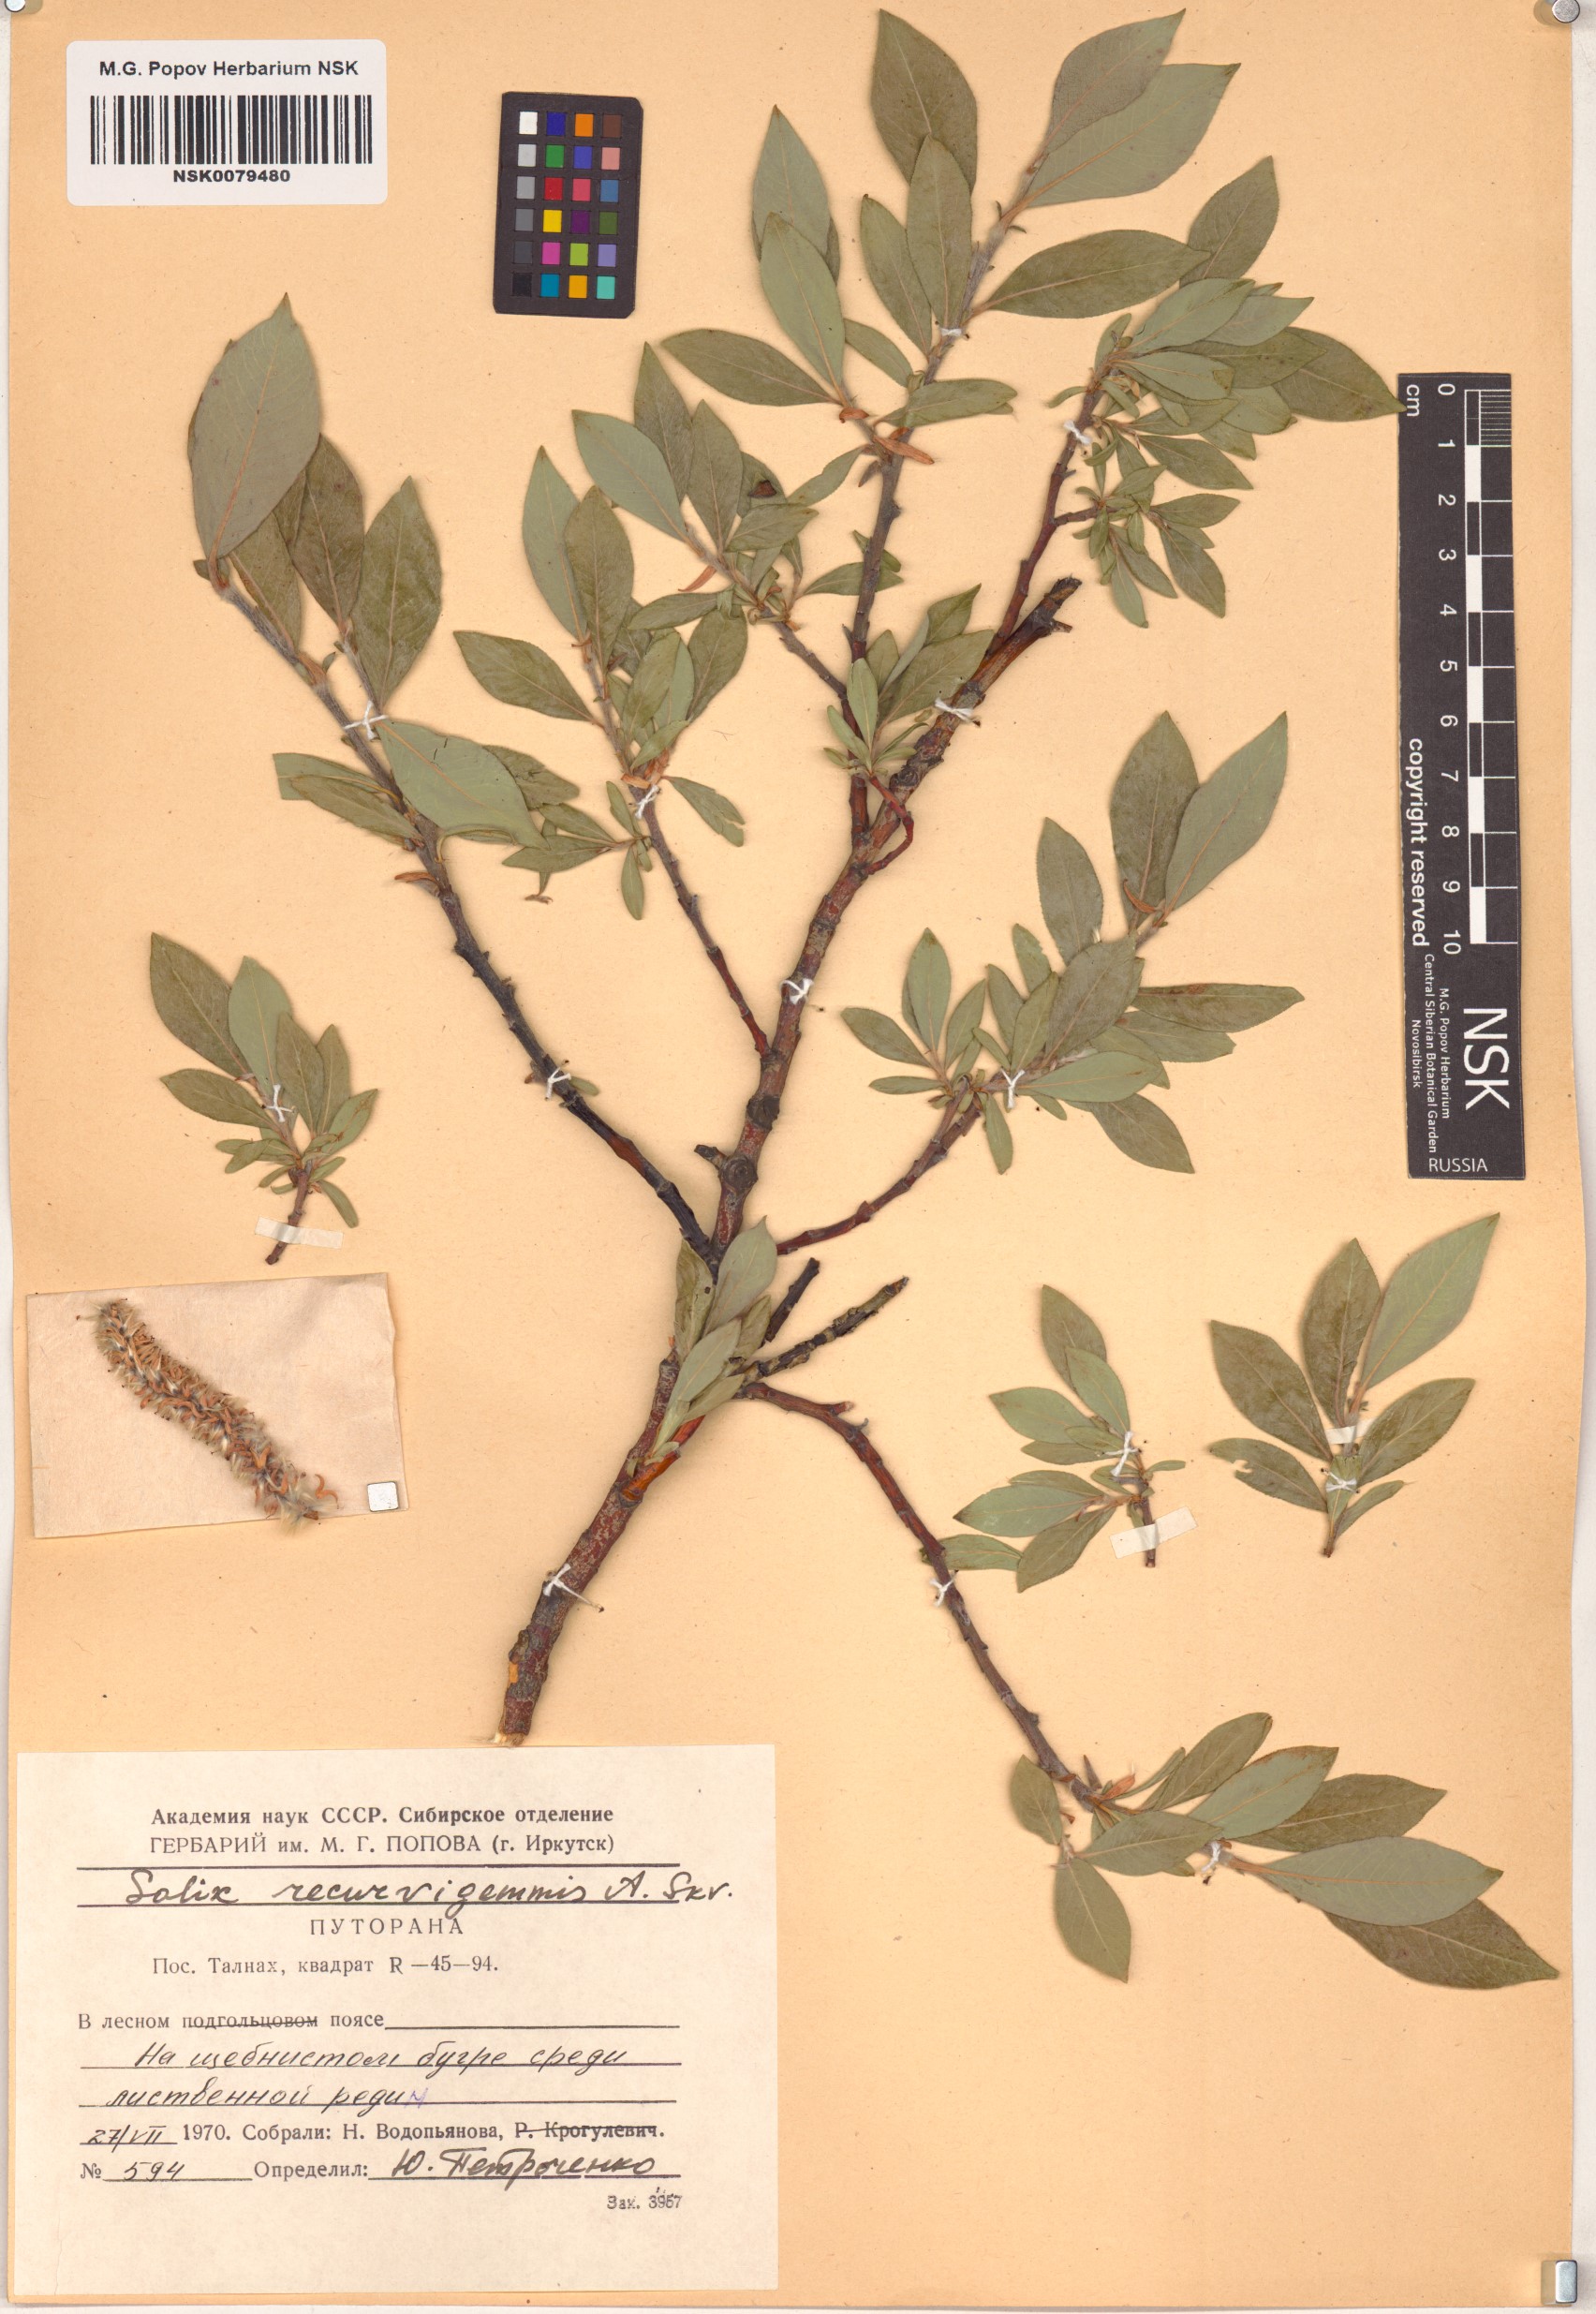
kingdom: Plantae
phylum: Tracheophyta
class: Magnoliopsida
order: Malpighiales
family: Salicaceae
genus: Salix
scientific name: Salix recurvigemmata
